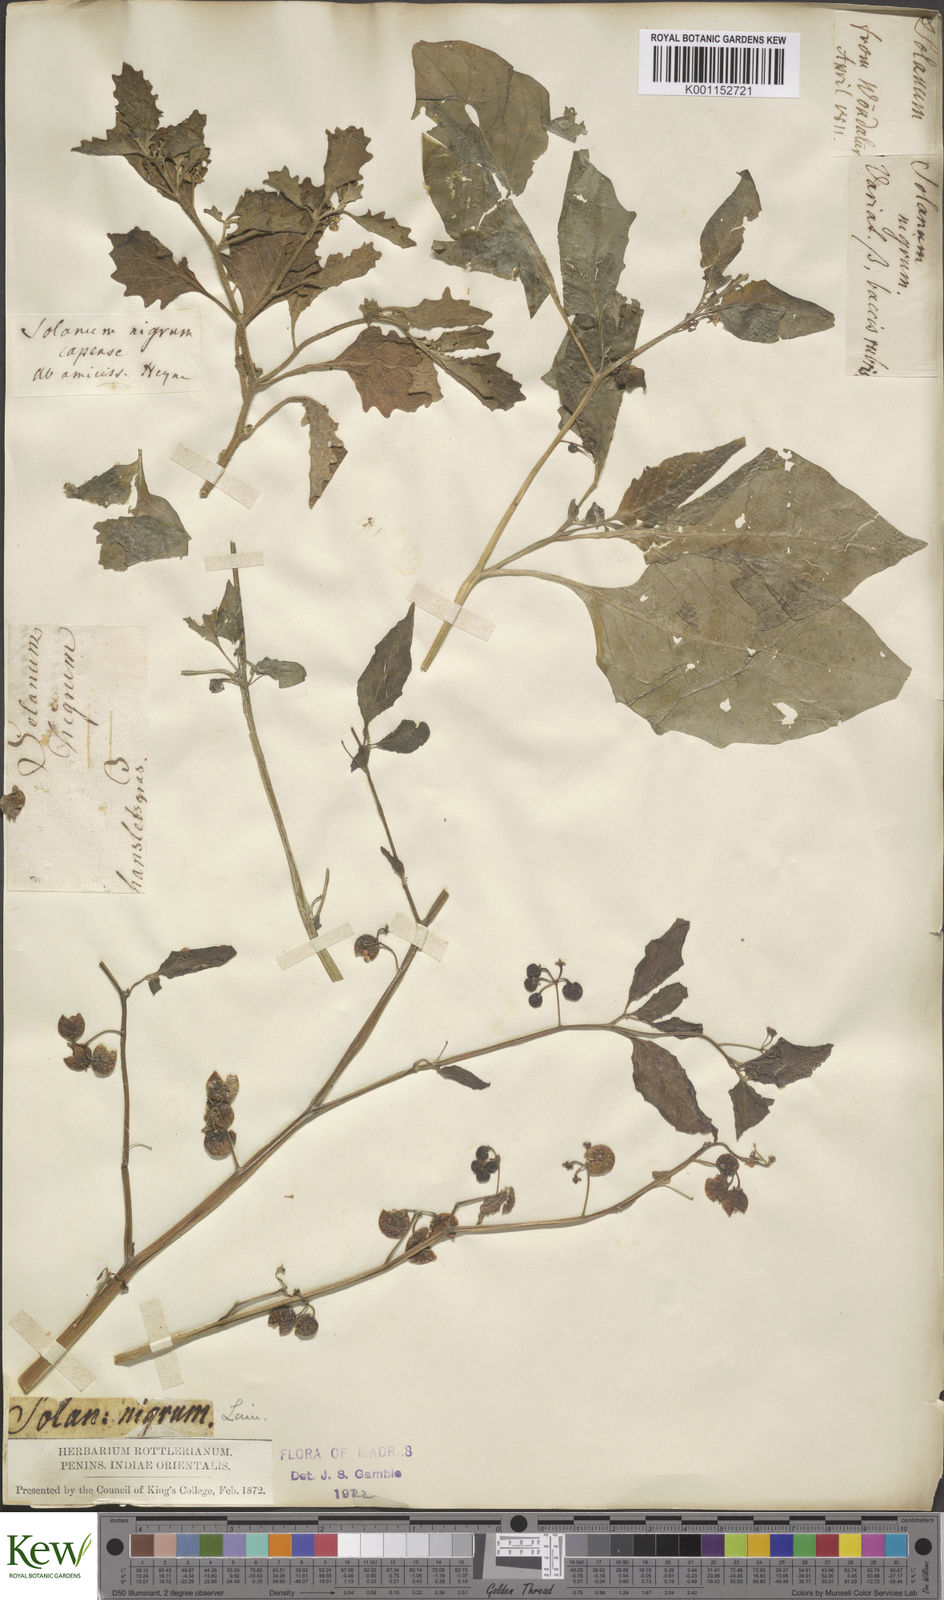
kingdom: Plantae
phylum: Tracheophyta
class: Magnoliopsida
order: Solanales
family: Solanaceae
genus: Solanum
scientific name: Solanum nigrum
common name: Black nightshade
